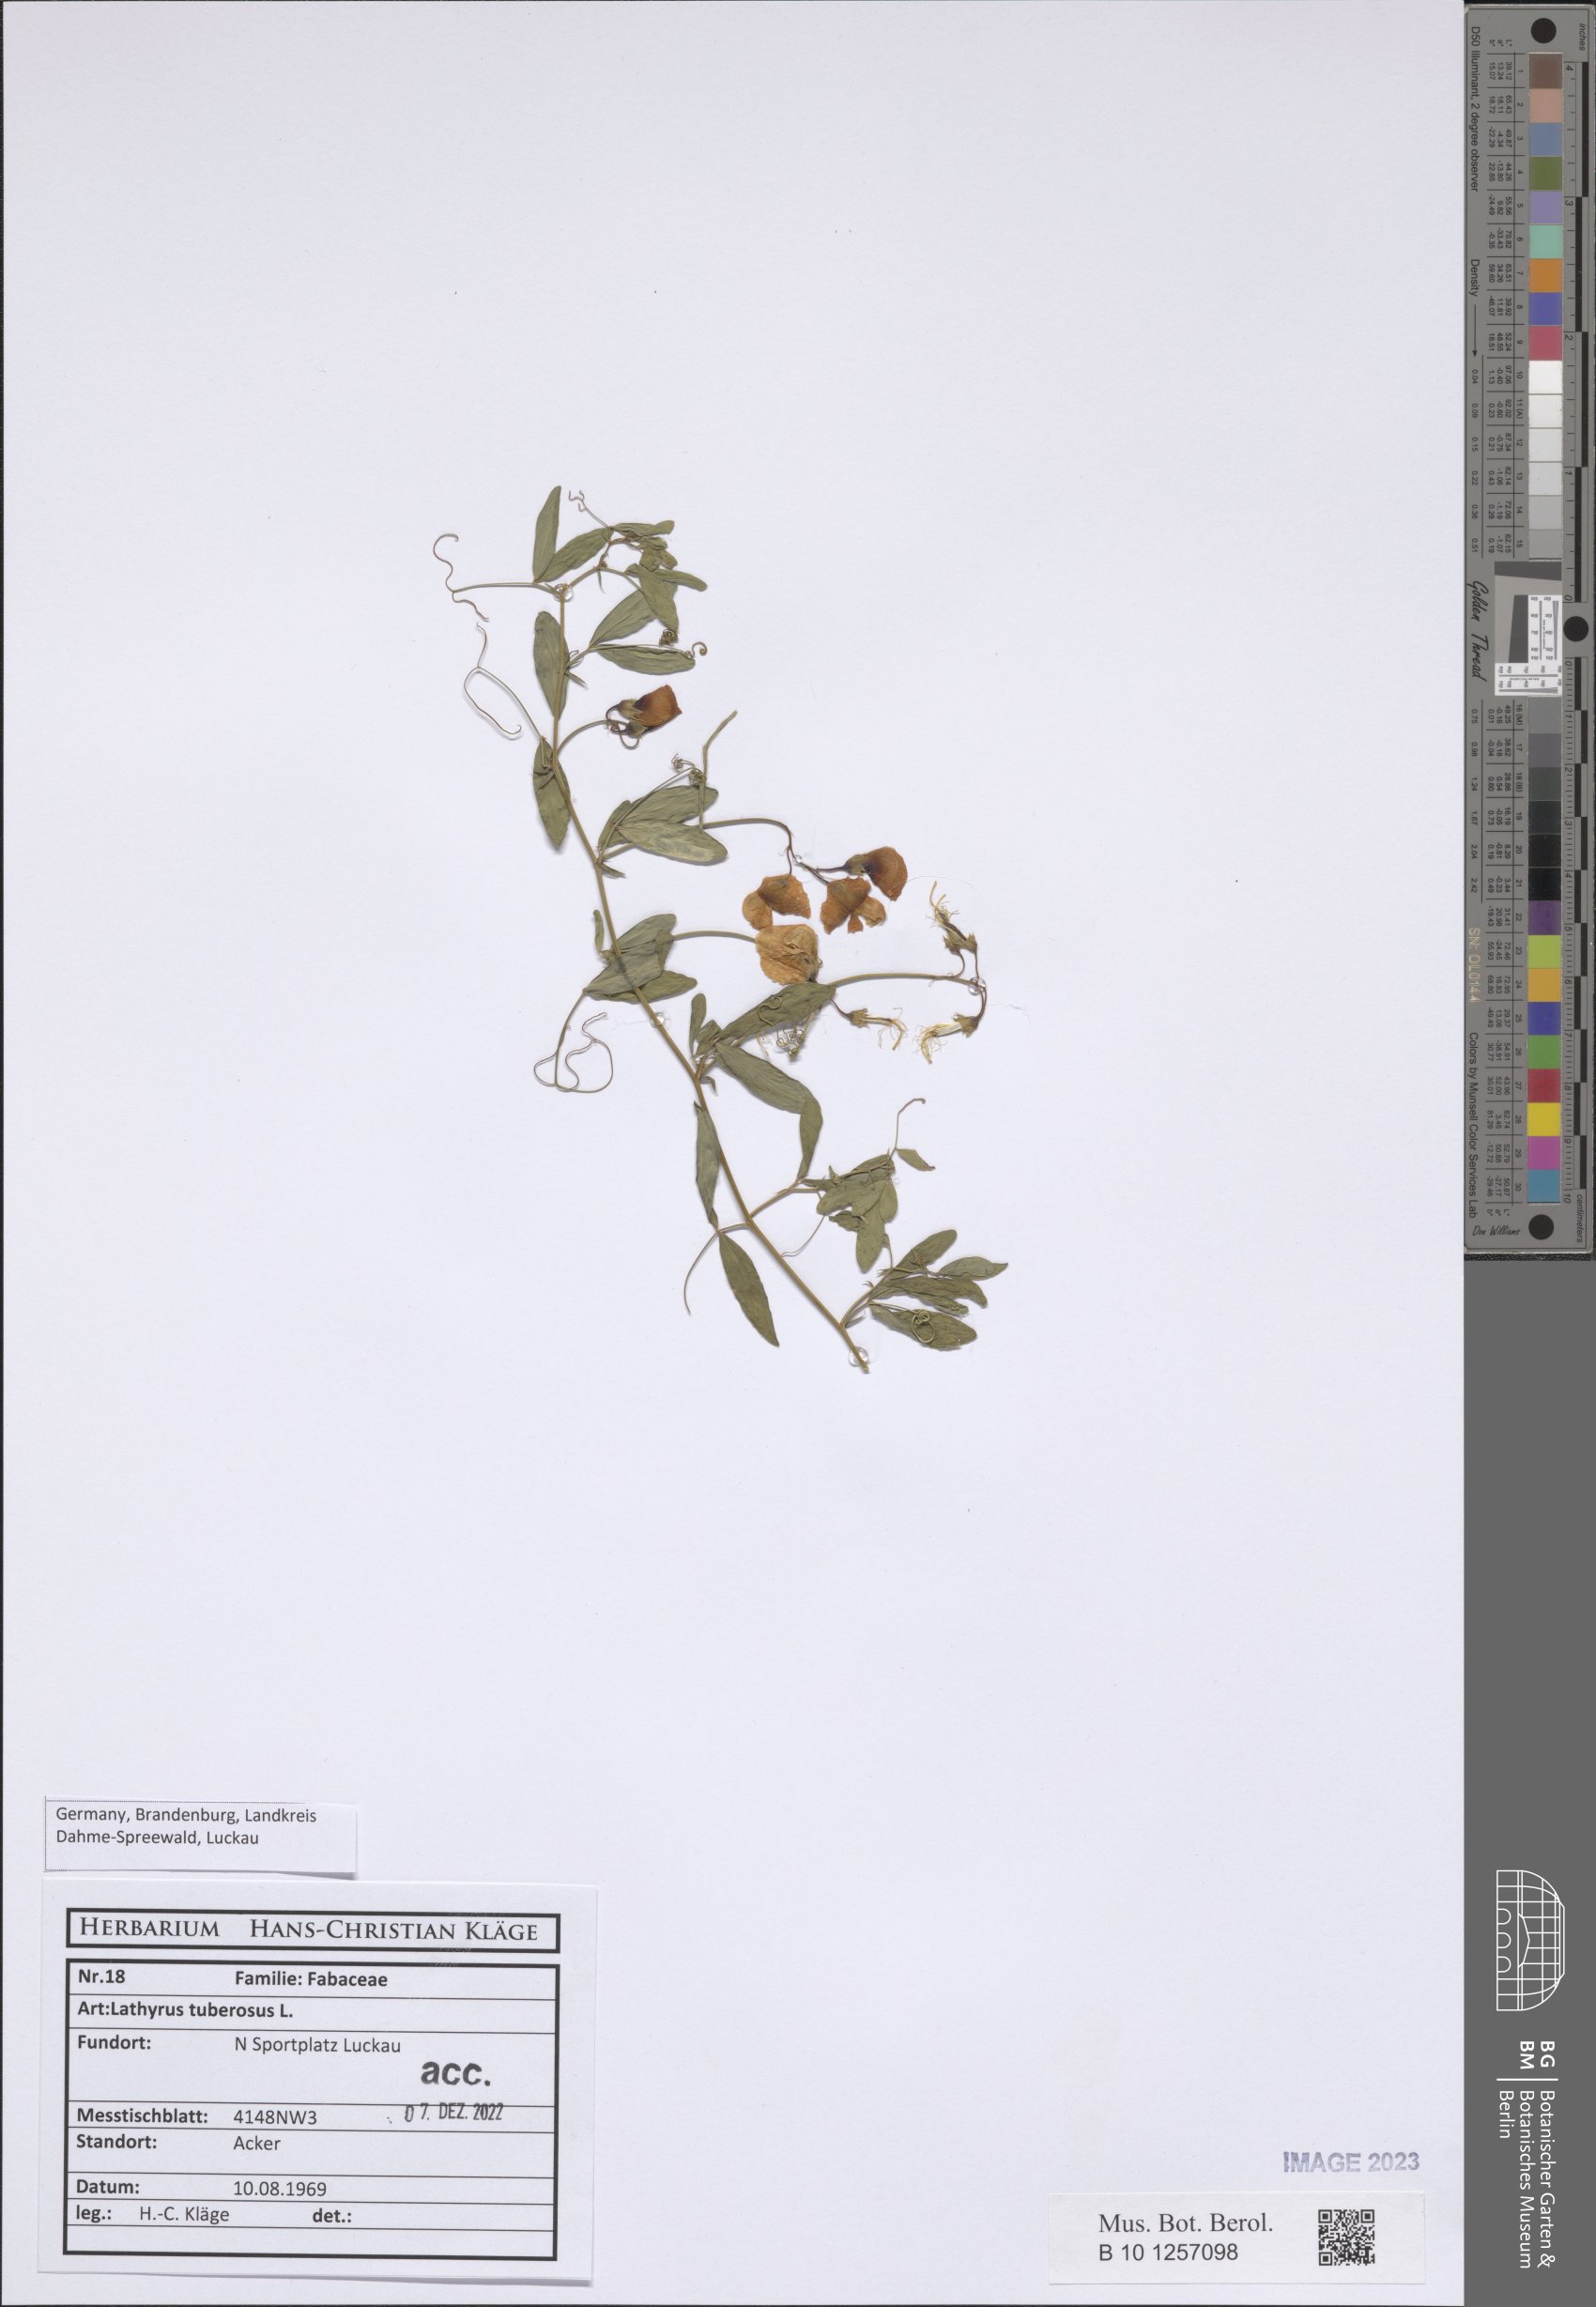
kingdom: Plantae
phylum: Tracheophyta
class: Magnoliopsida
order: Fabales
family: Fabaceae
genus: Lathyrus
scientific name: Lathyrus tuberosus
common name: Tuberous pea
